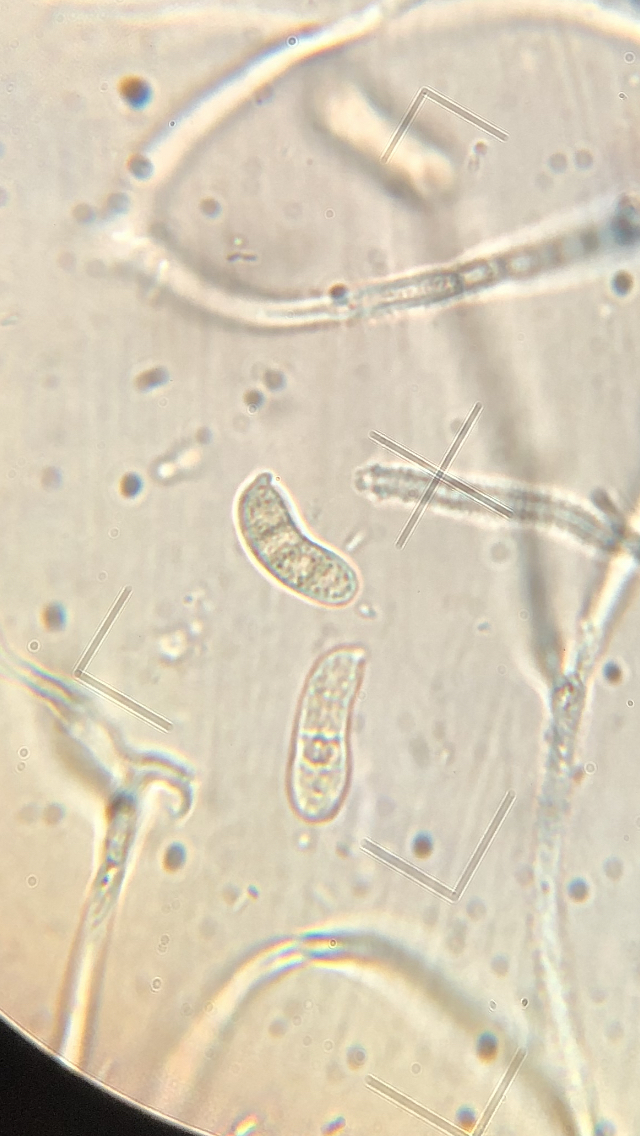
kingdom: Fungi
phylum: Basidiomycota
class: Dacrymycetes
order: Dacrymycetales
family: Dacrymycetaceae
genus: Dacrymyces
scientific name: Dacrymyces capitatus
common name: stilket tåresvamp
